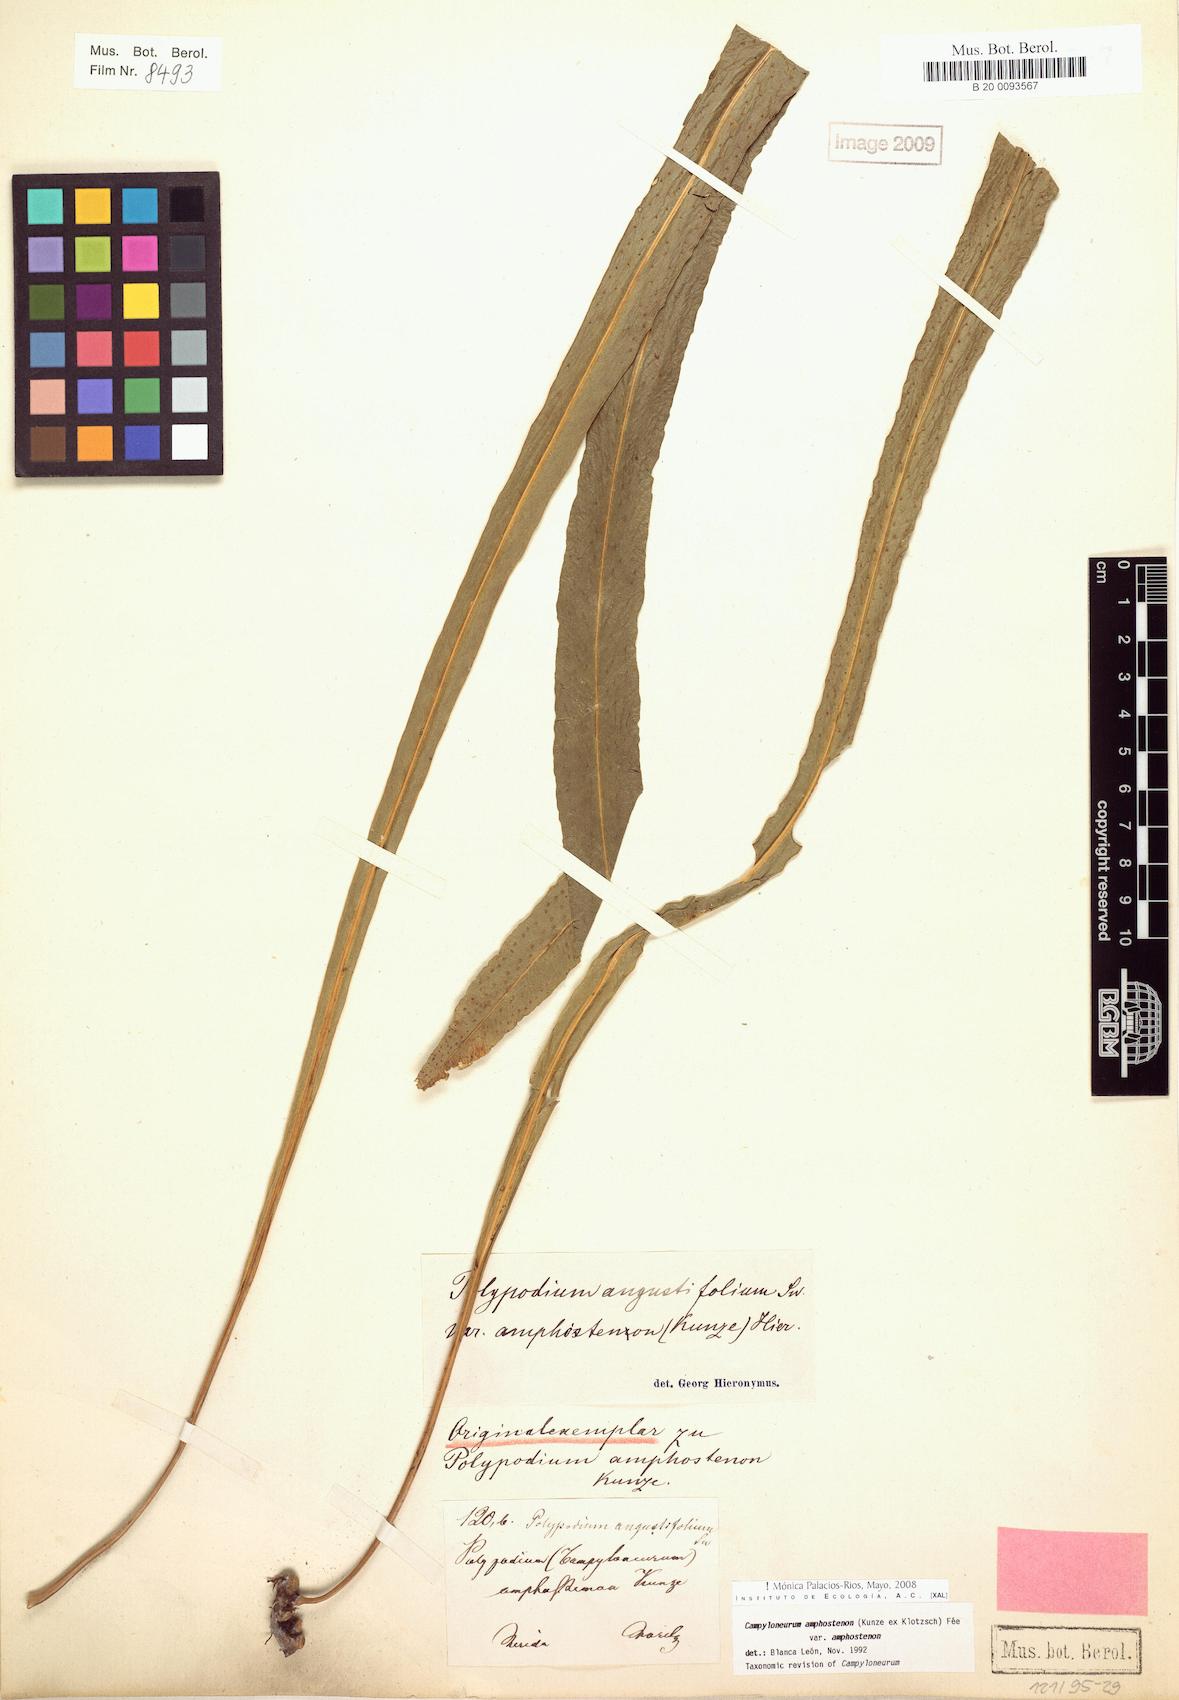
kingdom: Plantae
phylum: Tracheophyta
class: Polypodiopsida
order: Polypodiales
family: Polypodiaceae
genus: Campyloneurum
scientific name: Campyloneurum amphostenon
